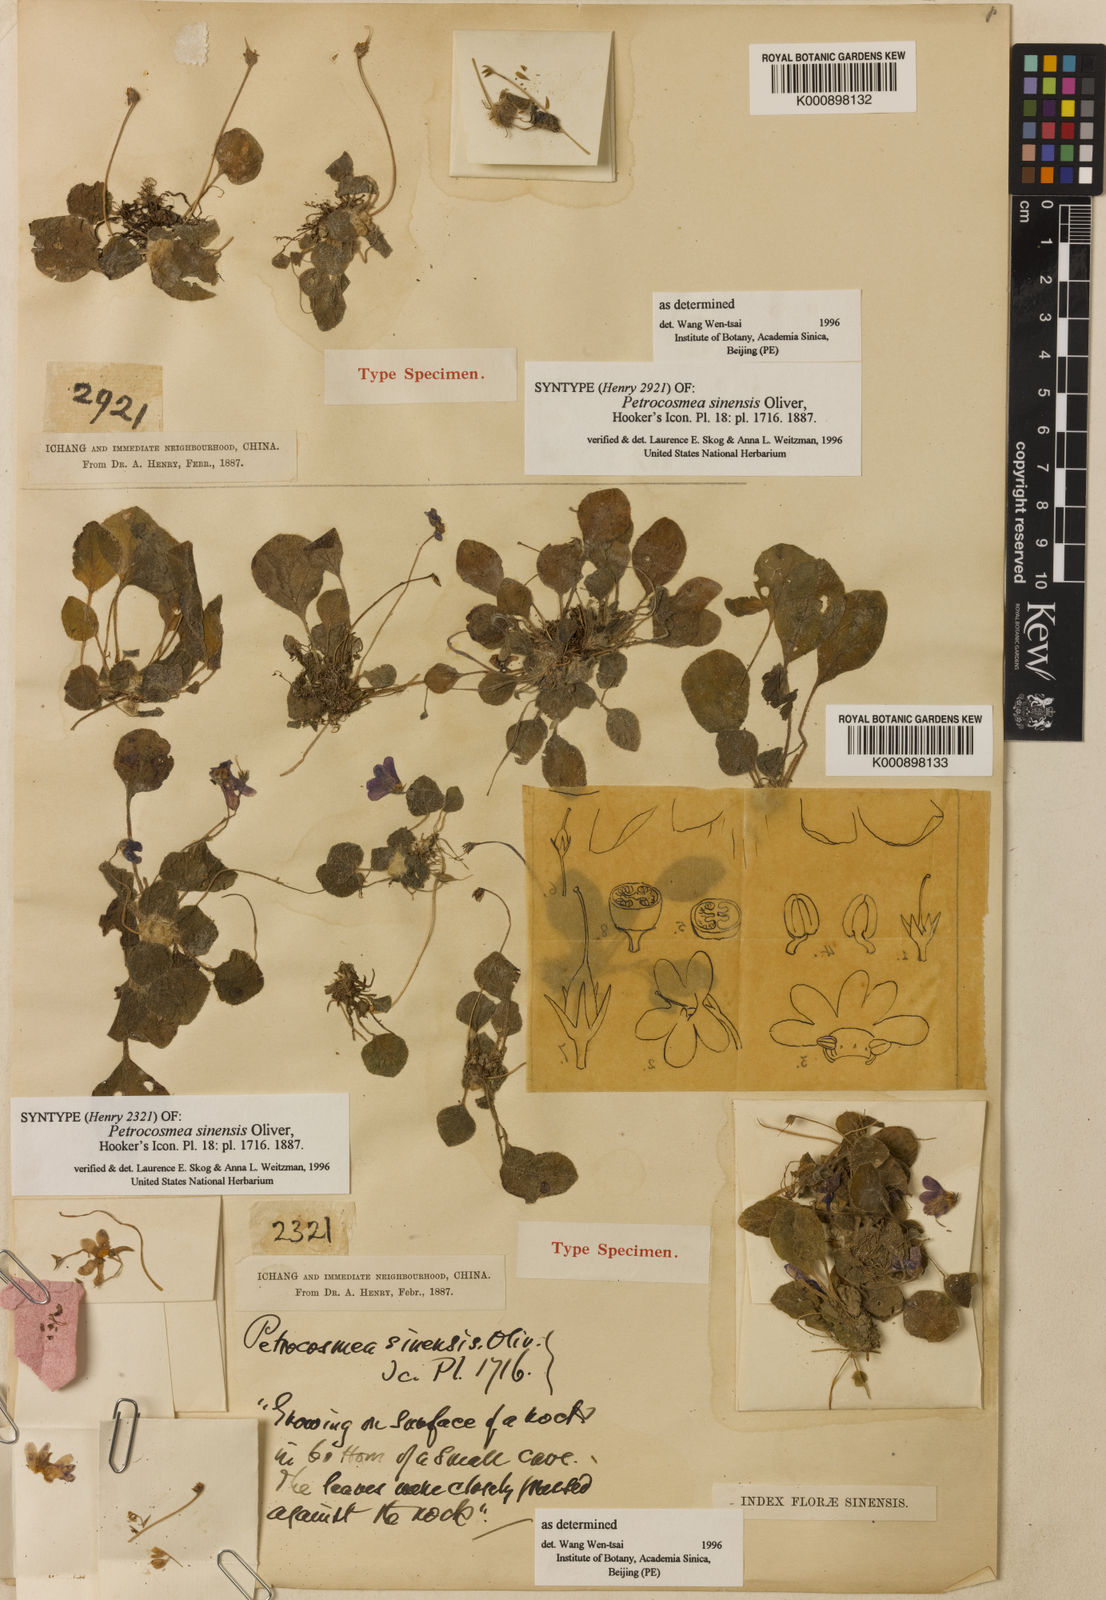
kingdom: Plantae
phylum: Tracheophyta
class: Magnoliopsida
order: Lamiales
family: Gesneriaceae
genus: Petrocosmea
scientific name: Petrocosmea sinensis
